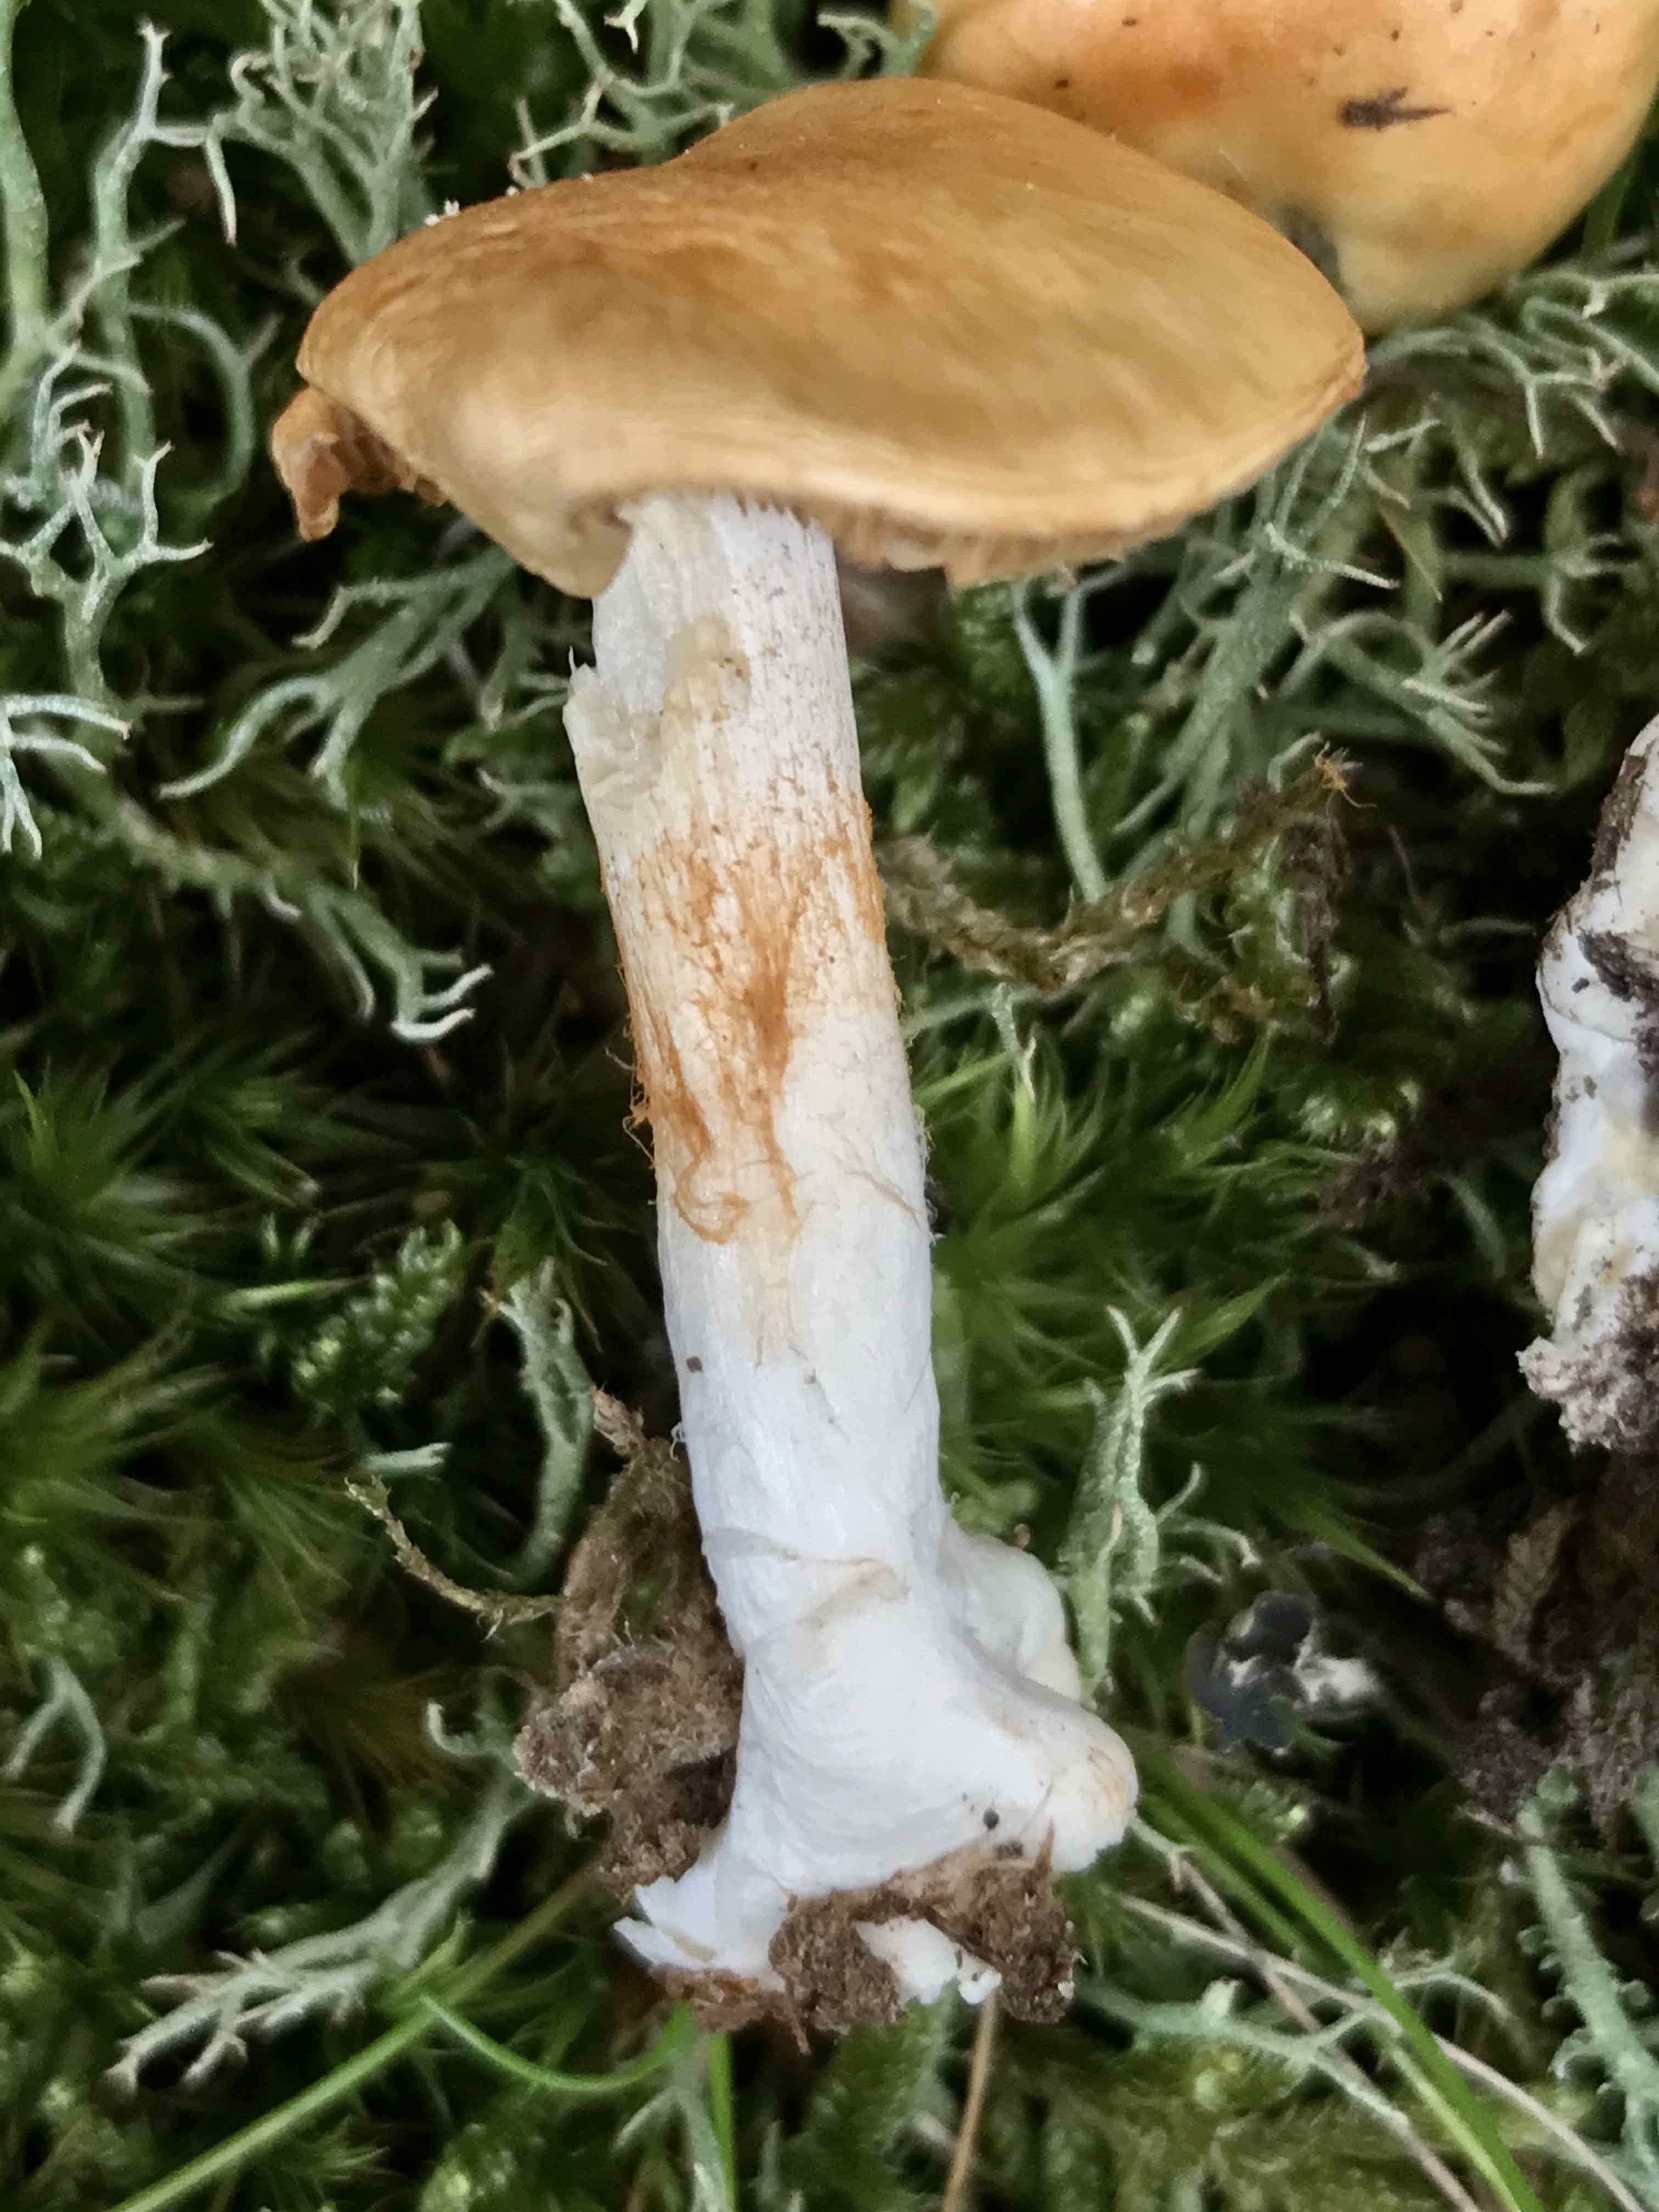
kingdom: Fungi
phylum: Basidiomycota
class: Agaricomycetes
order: Agaricales
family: Cortinariaceae
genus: Thaxterogaster
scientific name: Thaxterogaster emollitus
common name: besk slørhat
